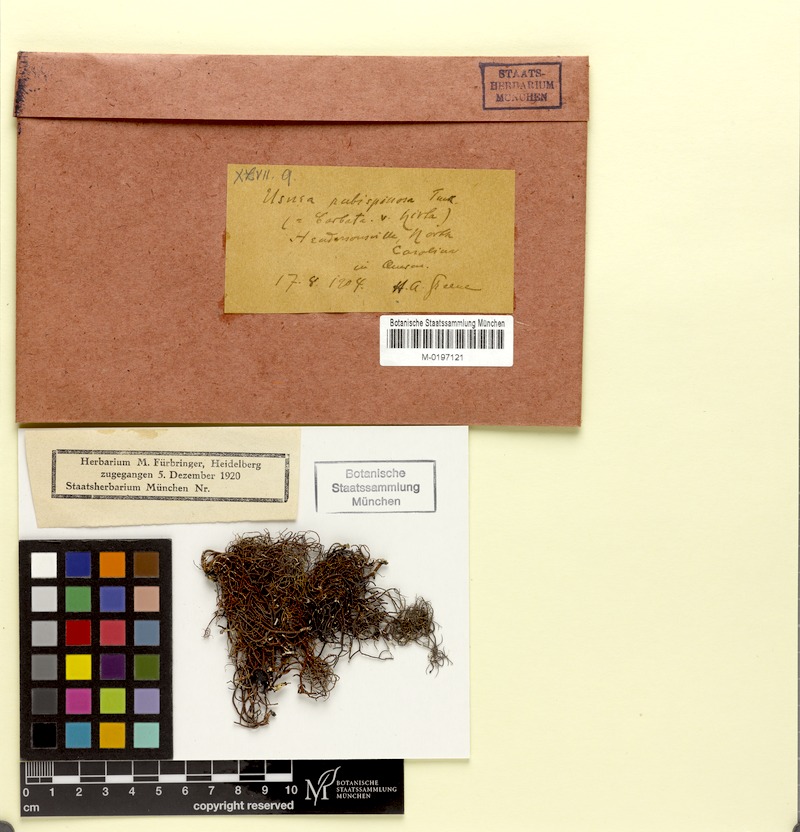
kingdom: Fungi
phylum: Ascomycota
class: Lecanoromycetes
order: Lecanorales
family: Parmeliaceae
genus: Usnea
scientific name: Usnea strigosa
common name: Bushy beard lichen
